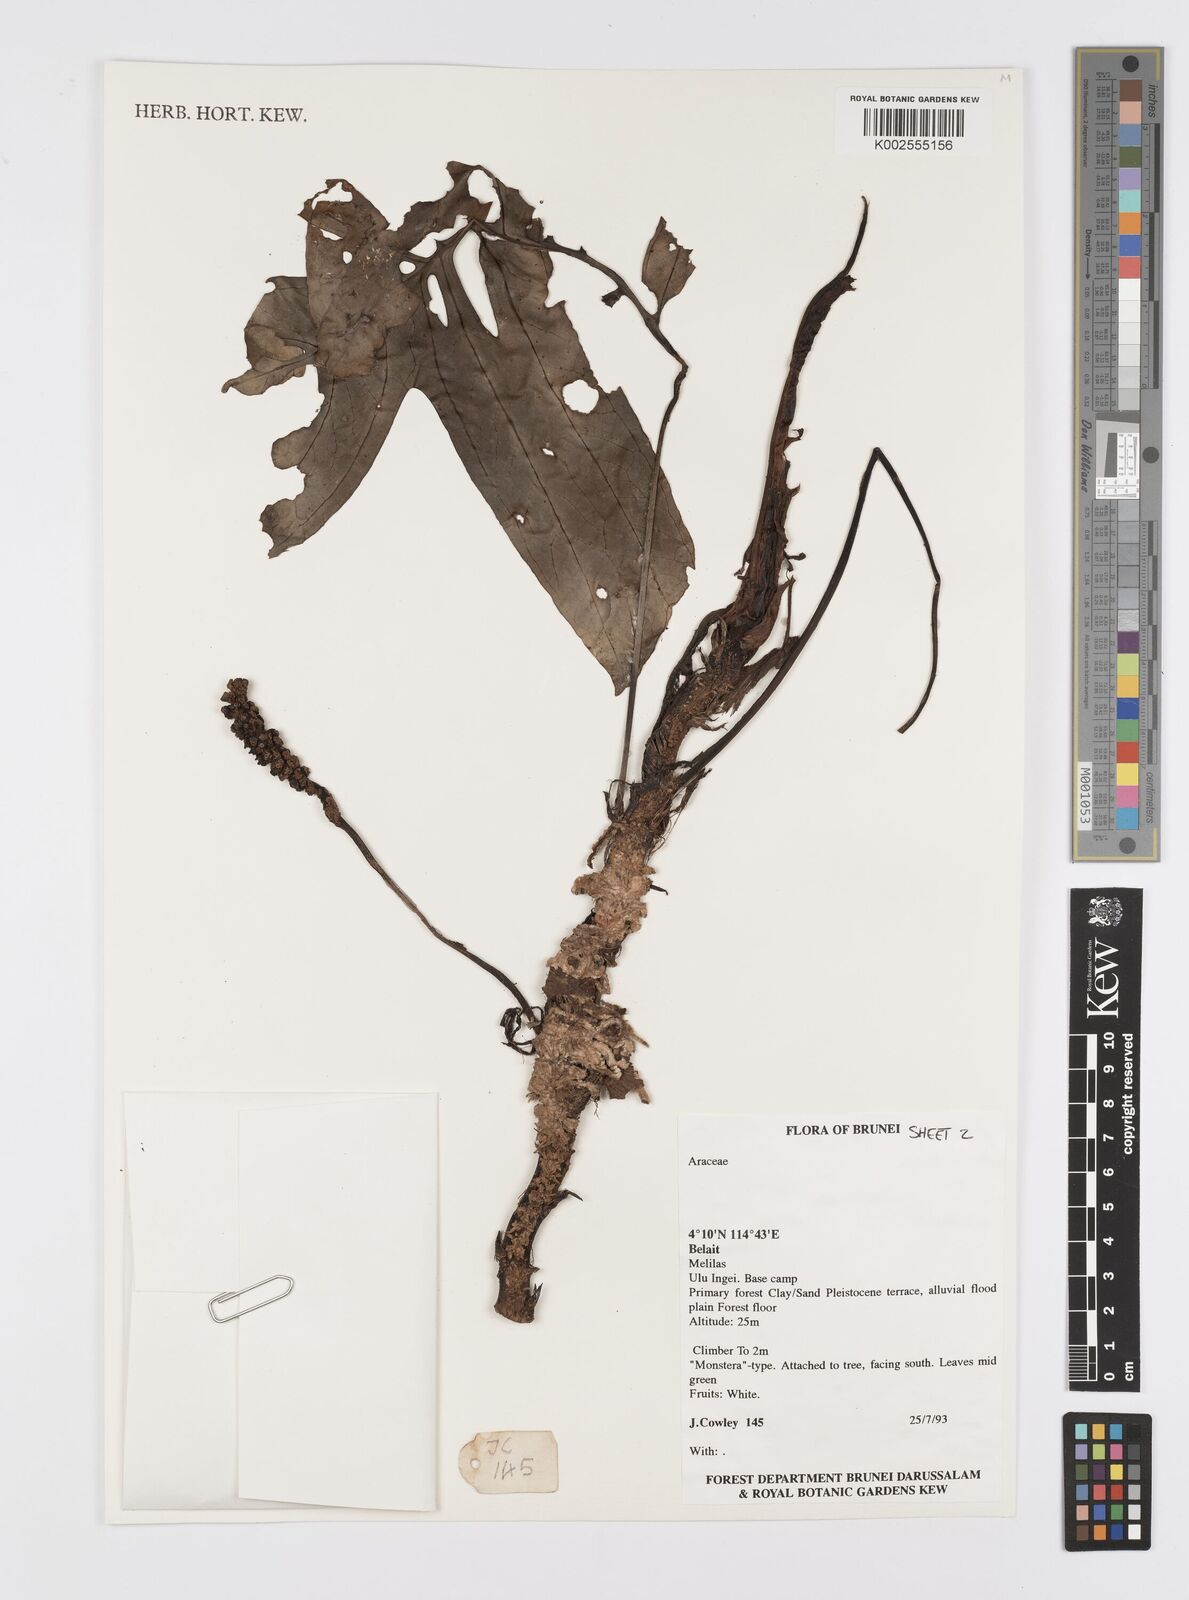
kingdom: Plantae
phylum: Tracheophyta
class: Liliopsida
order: Alismatales
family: Araceae
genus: Amydrium
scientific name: Amydrium medium
